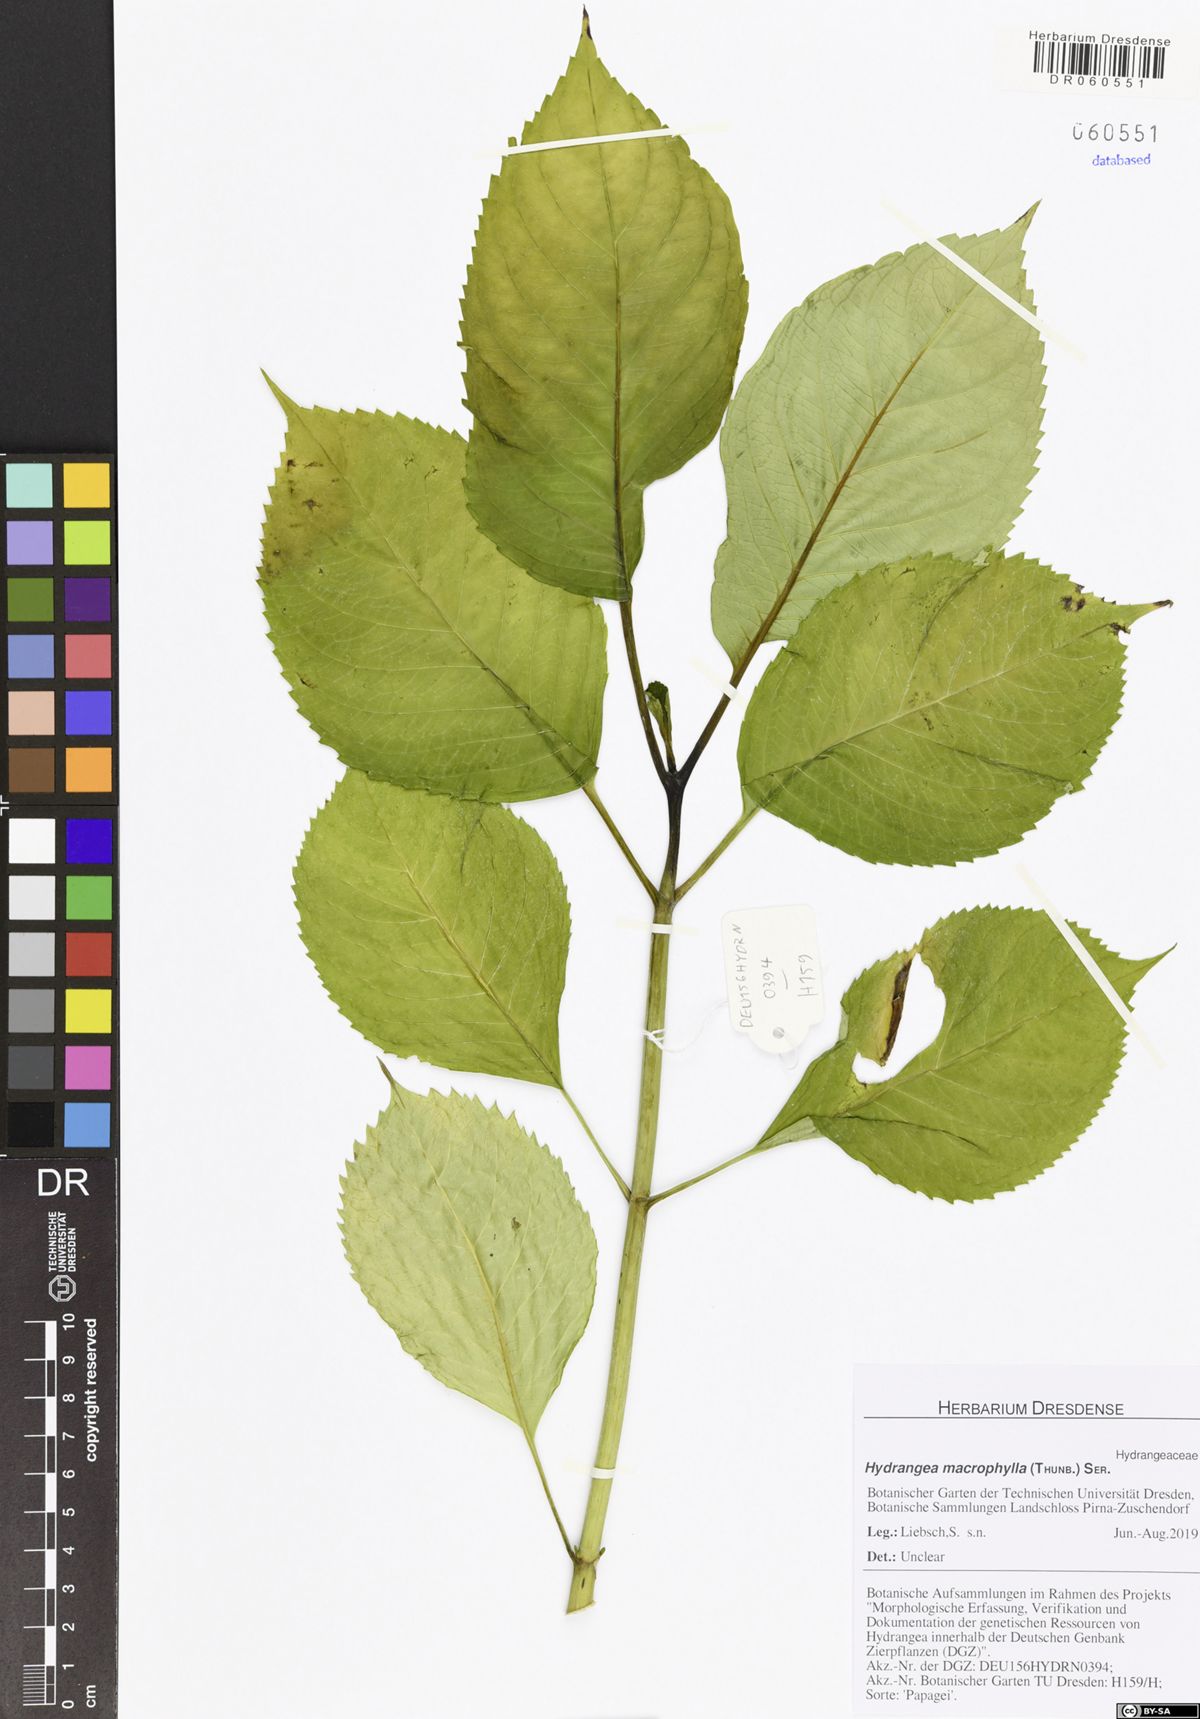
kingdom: Plantae
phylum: Tracheophyta
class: Magnoliopsida
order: Cornales
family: Hydrangeaceae
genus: Hydrangea
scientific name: Hydrangea macrophylla
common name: Hydrangea
